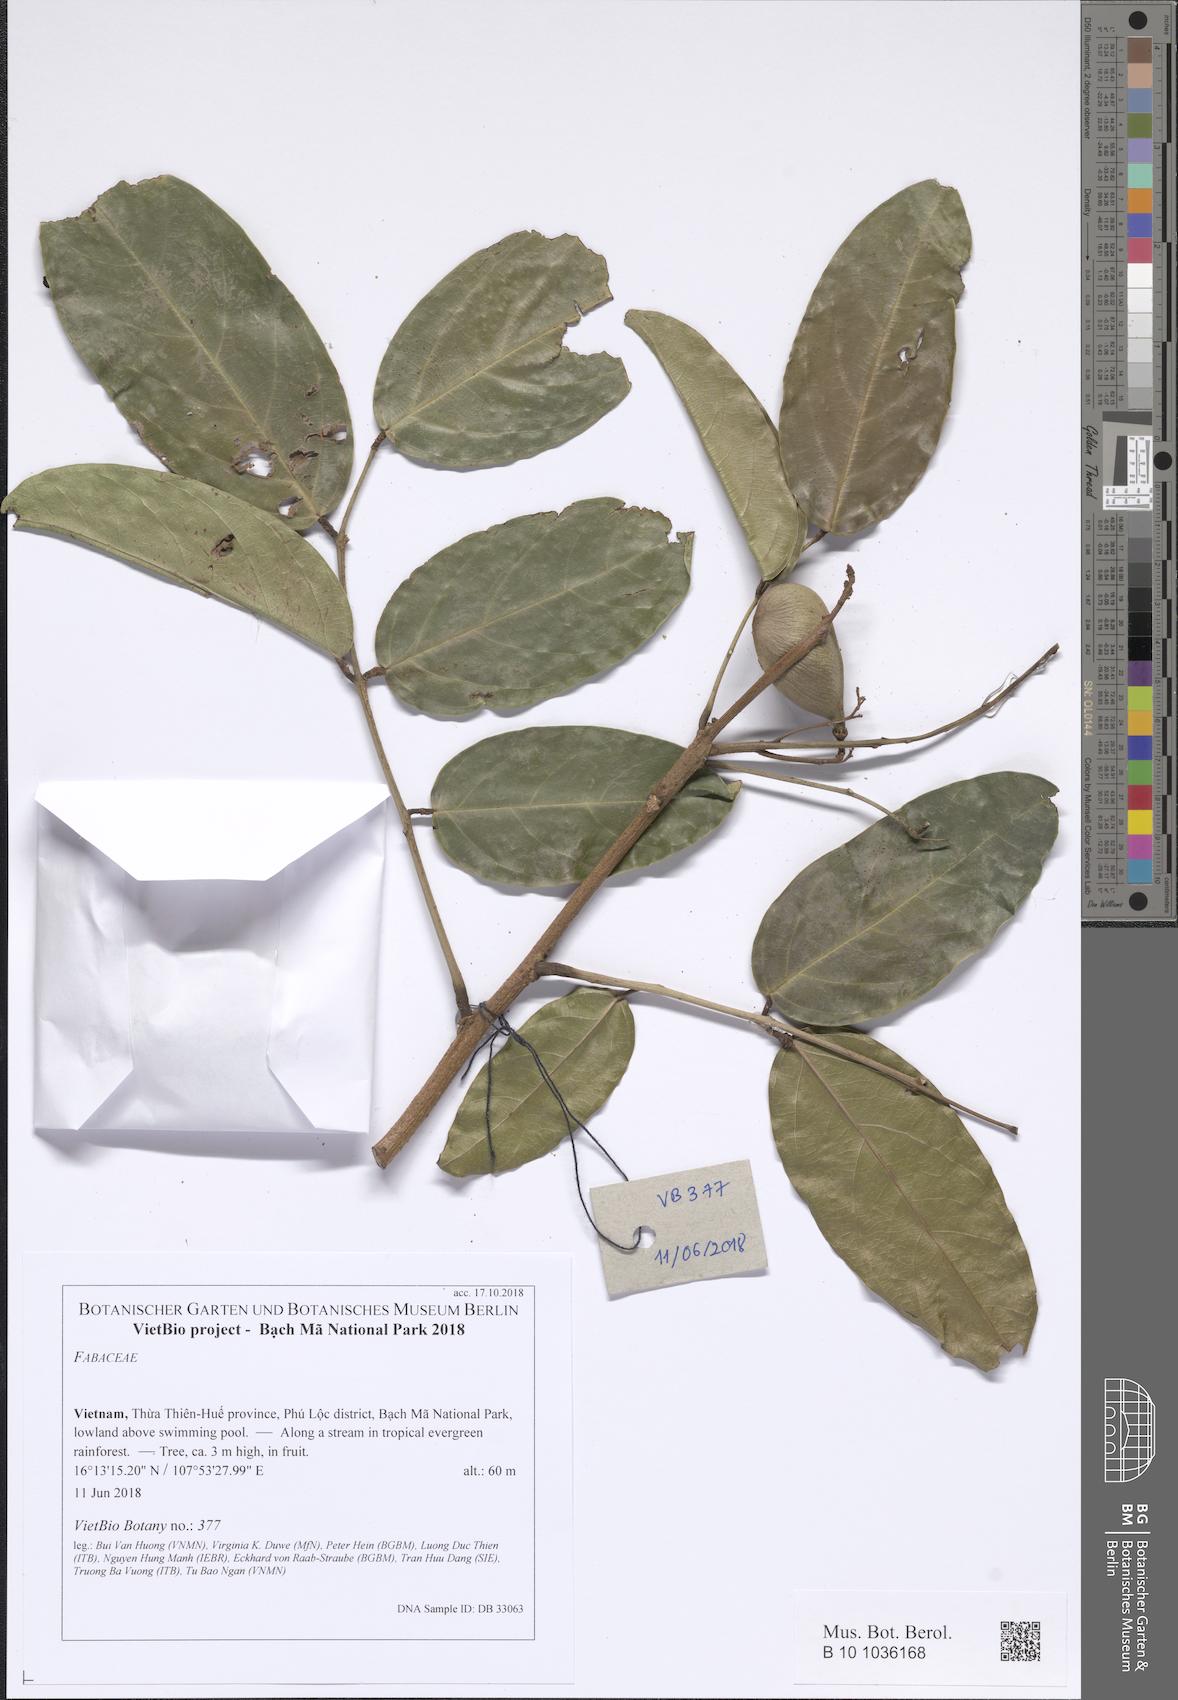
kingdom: Plantae
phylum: Tracheophyta
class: Magnoliopsida
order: Fabales
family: Fabaceae
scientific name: Fabaceae
